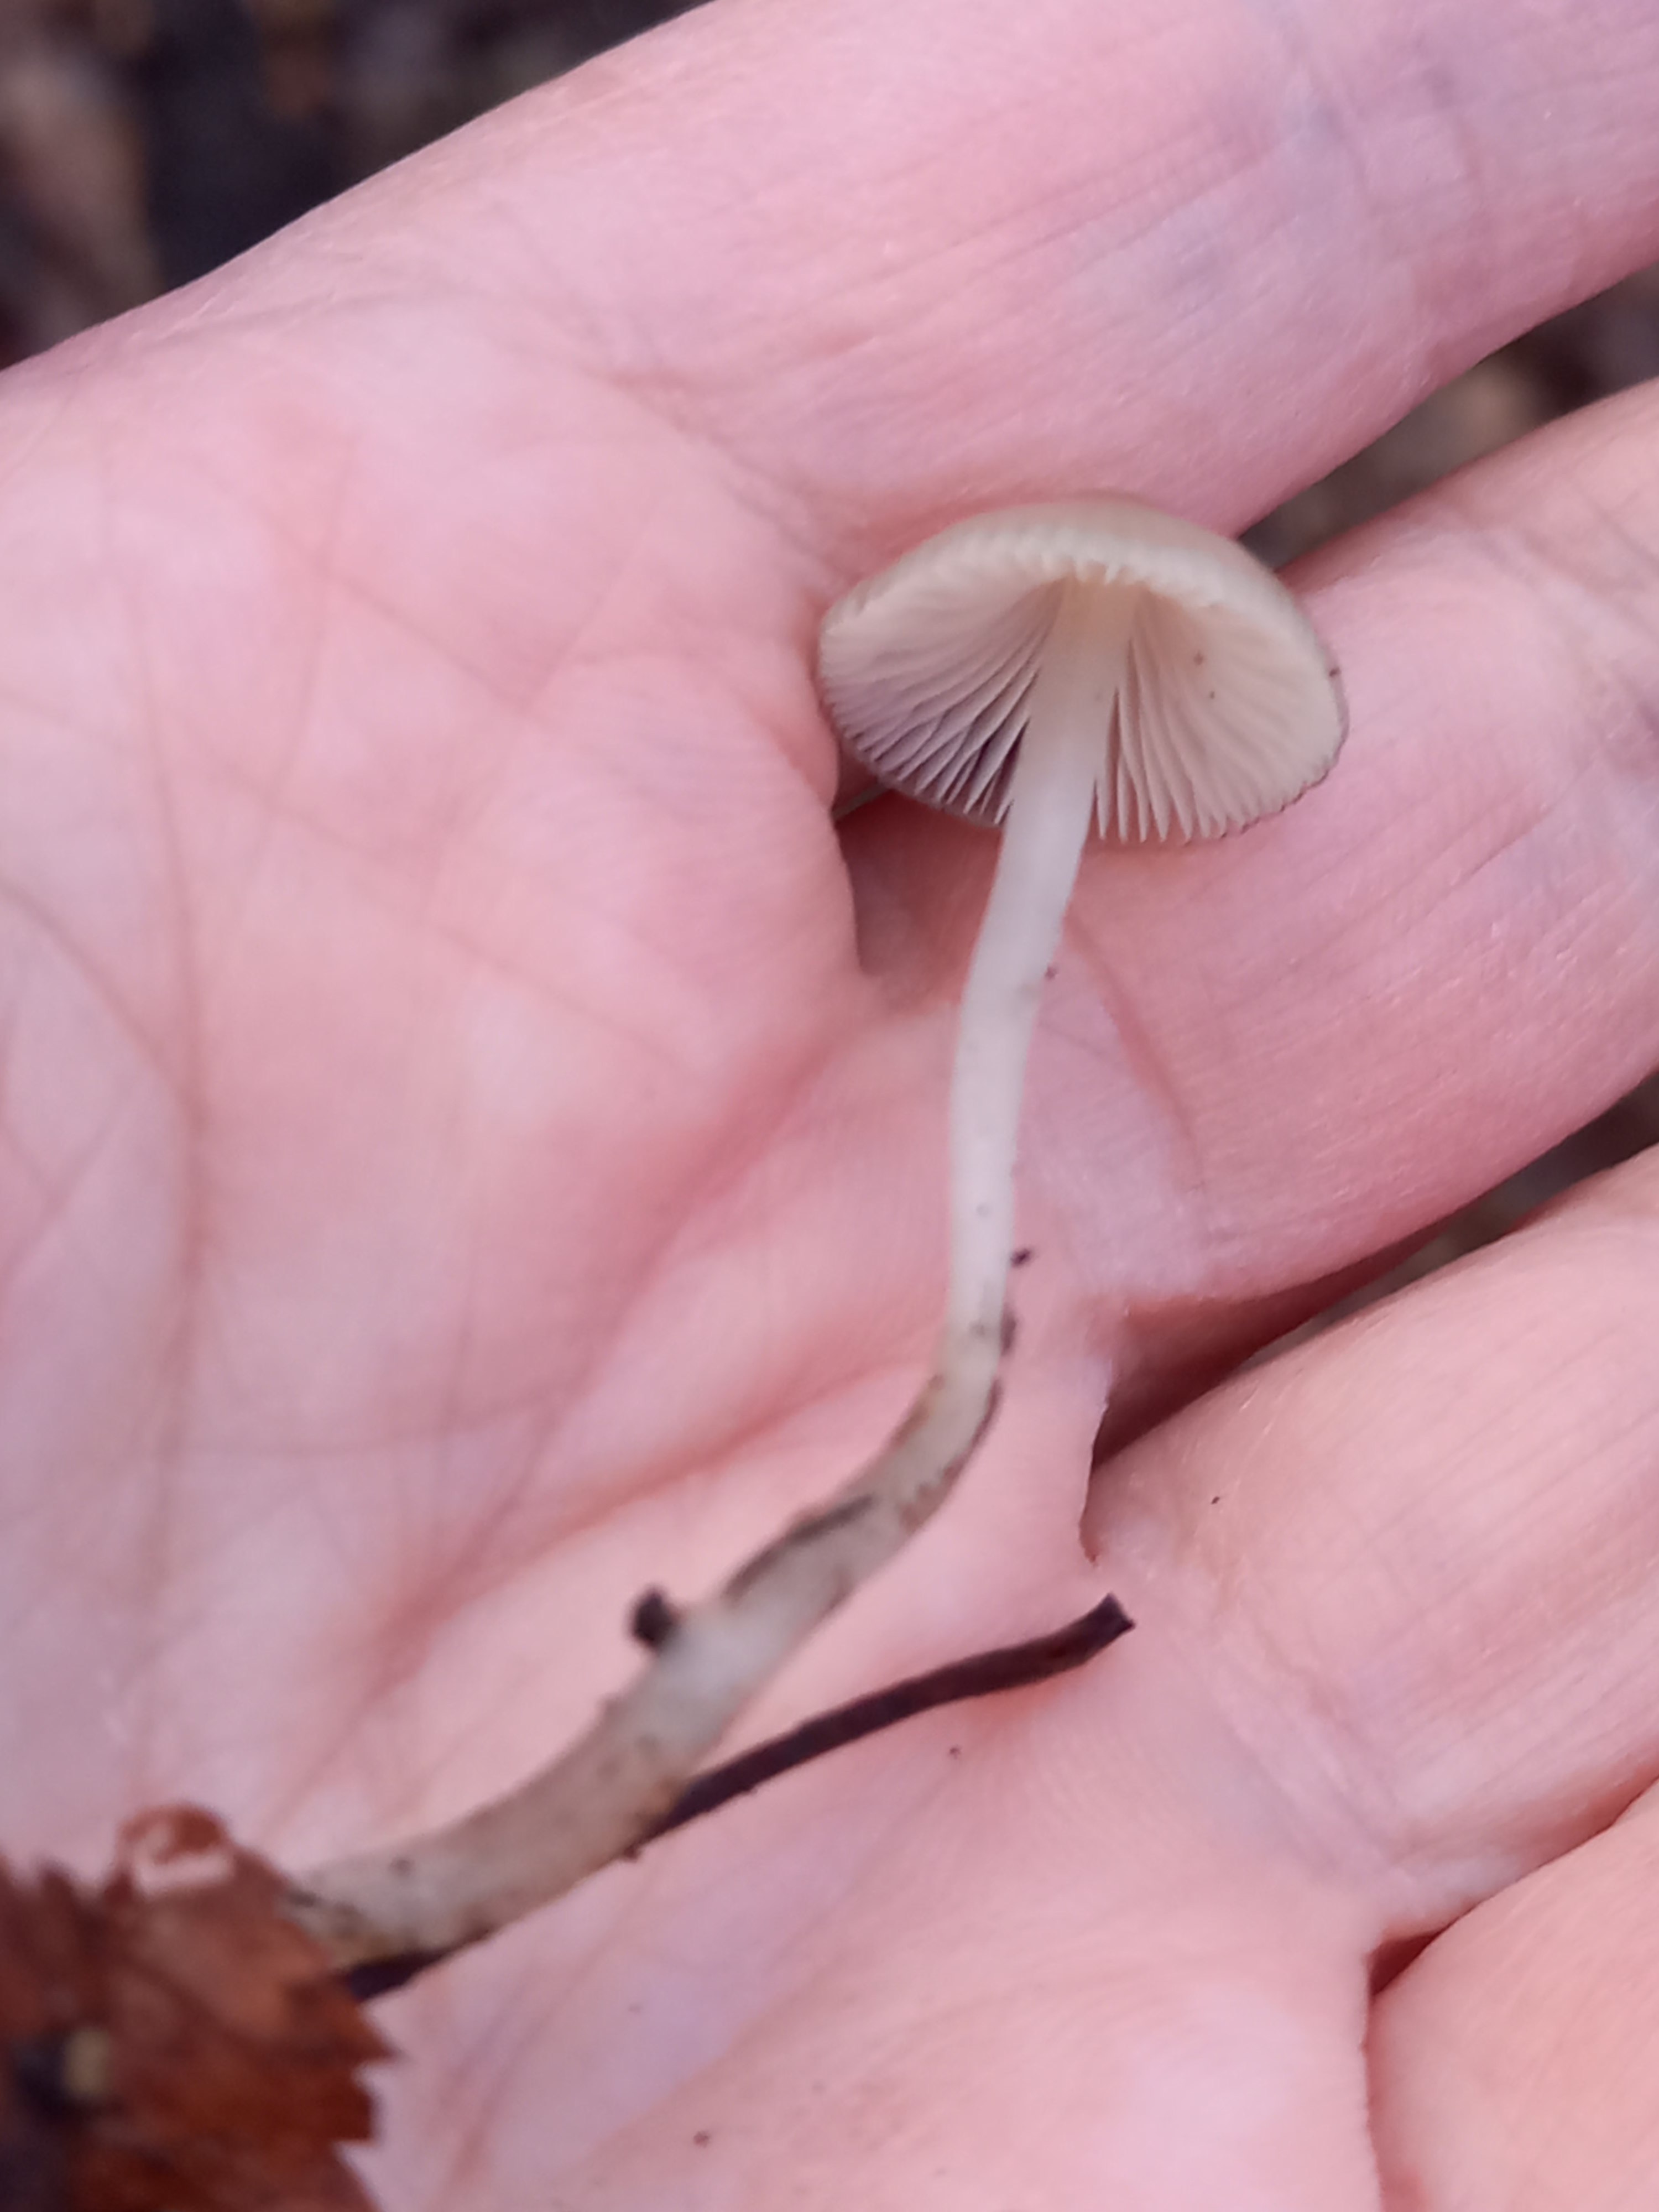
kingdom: Fungi
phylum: Basidiomycota
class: Agaricomycetes
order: Agaricales
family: Mycenaceae
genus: Mycena
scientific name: Mycena
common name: huesvamp
